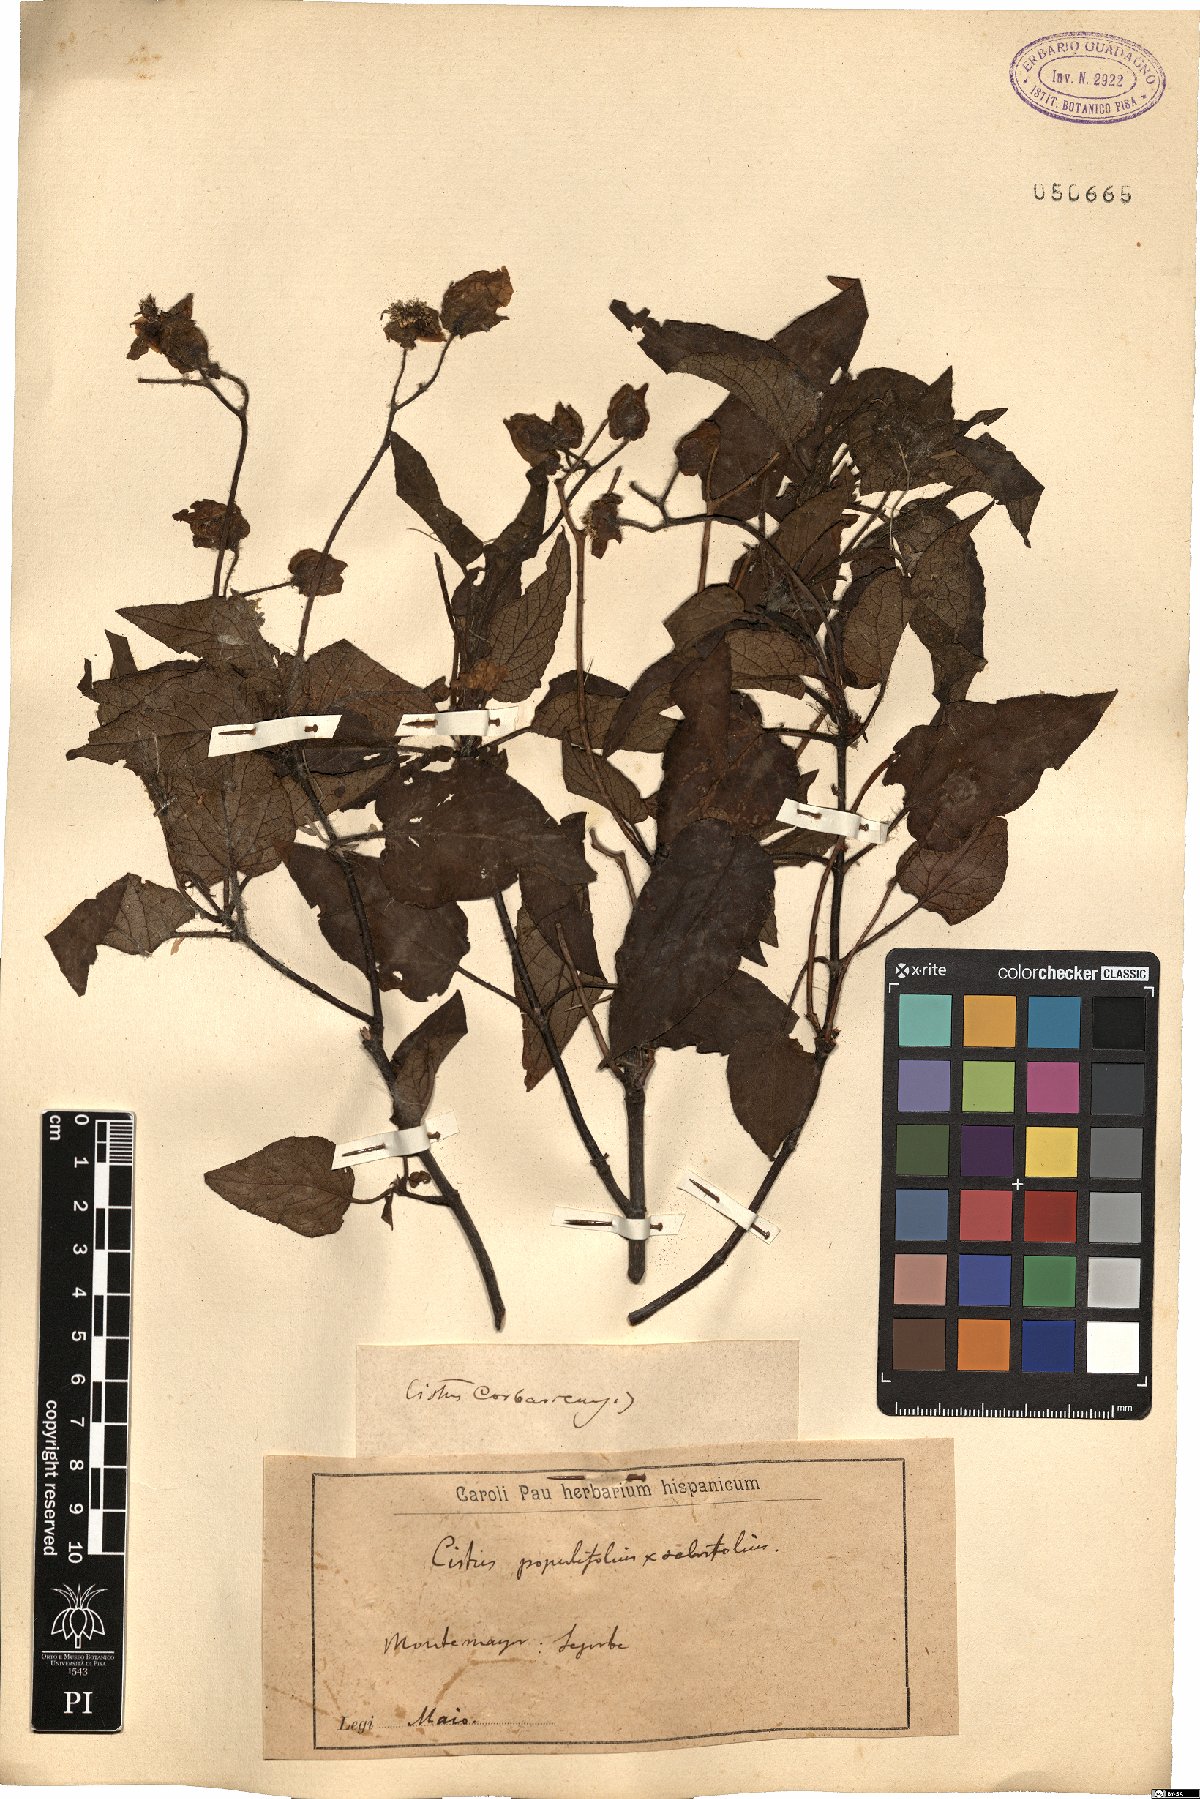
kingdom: Plantae
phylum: Tracheophyta
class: Magnoliopsida
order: Malvales
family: Cistaceae
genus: Cistus
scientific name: Cistus heterophyllus
